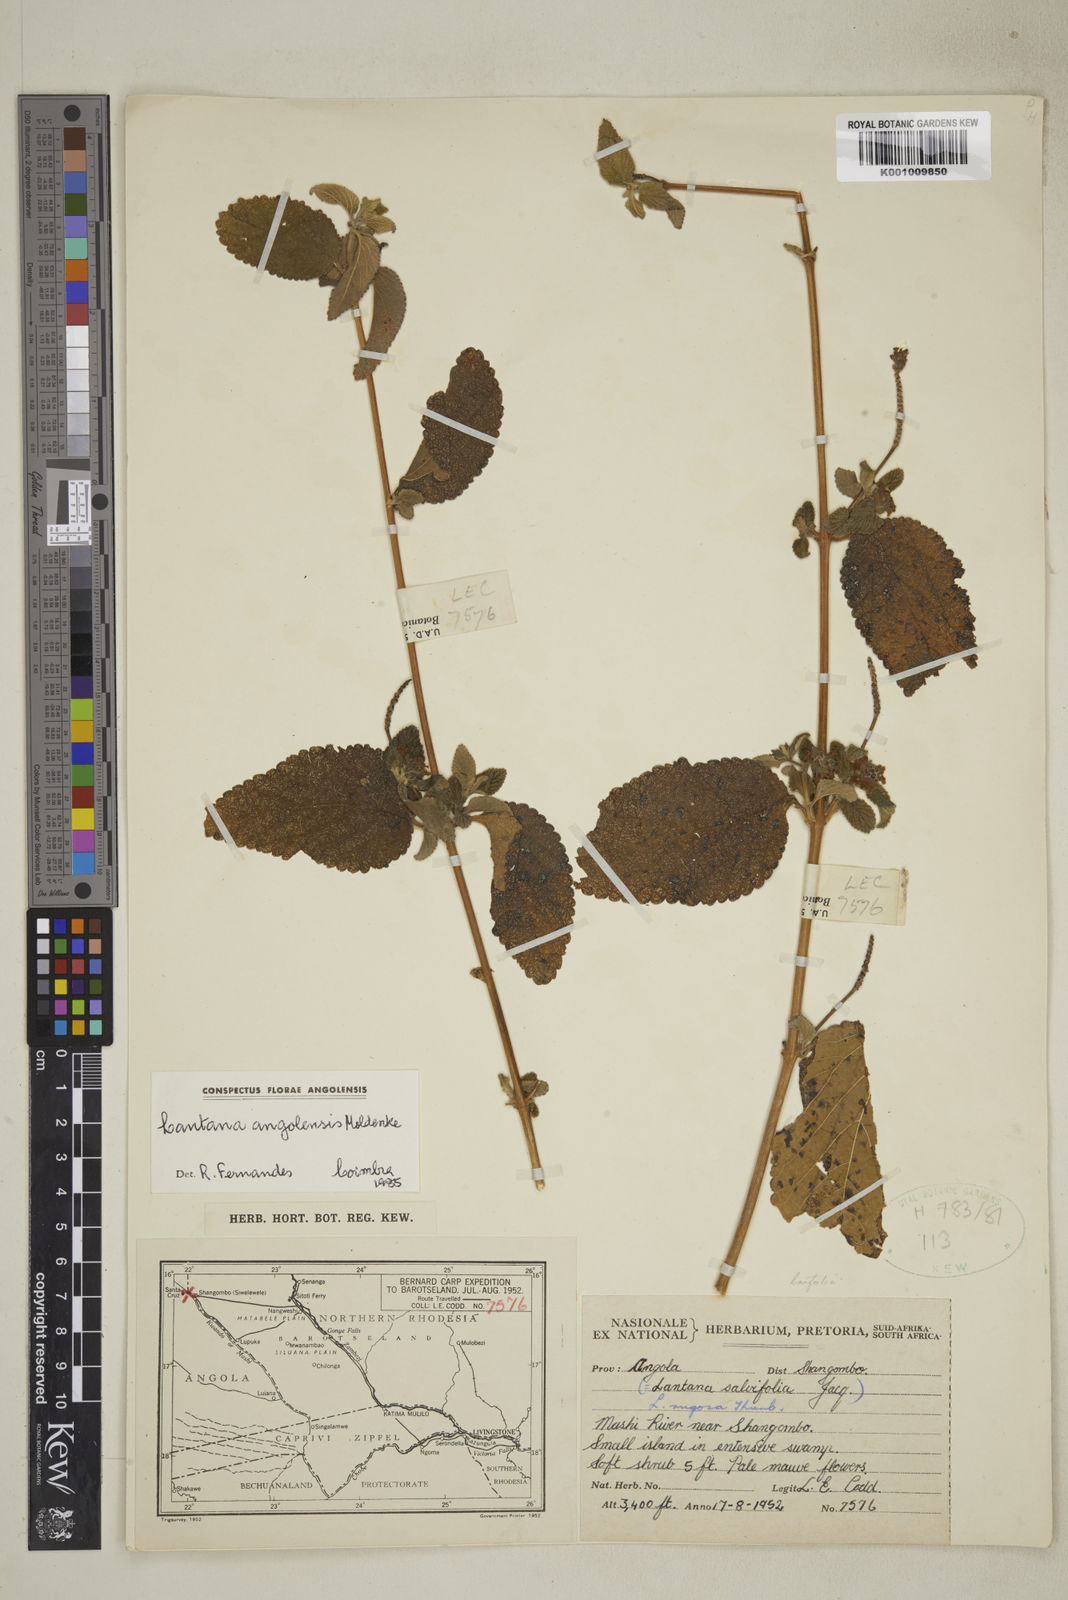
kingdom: Plantae
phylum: Tracheophyta
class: Magnoliopsida
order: Lamiales
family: Verbenaceae
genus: Lantana
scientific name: Lantana angolensis
